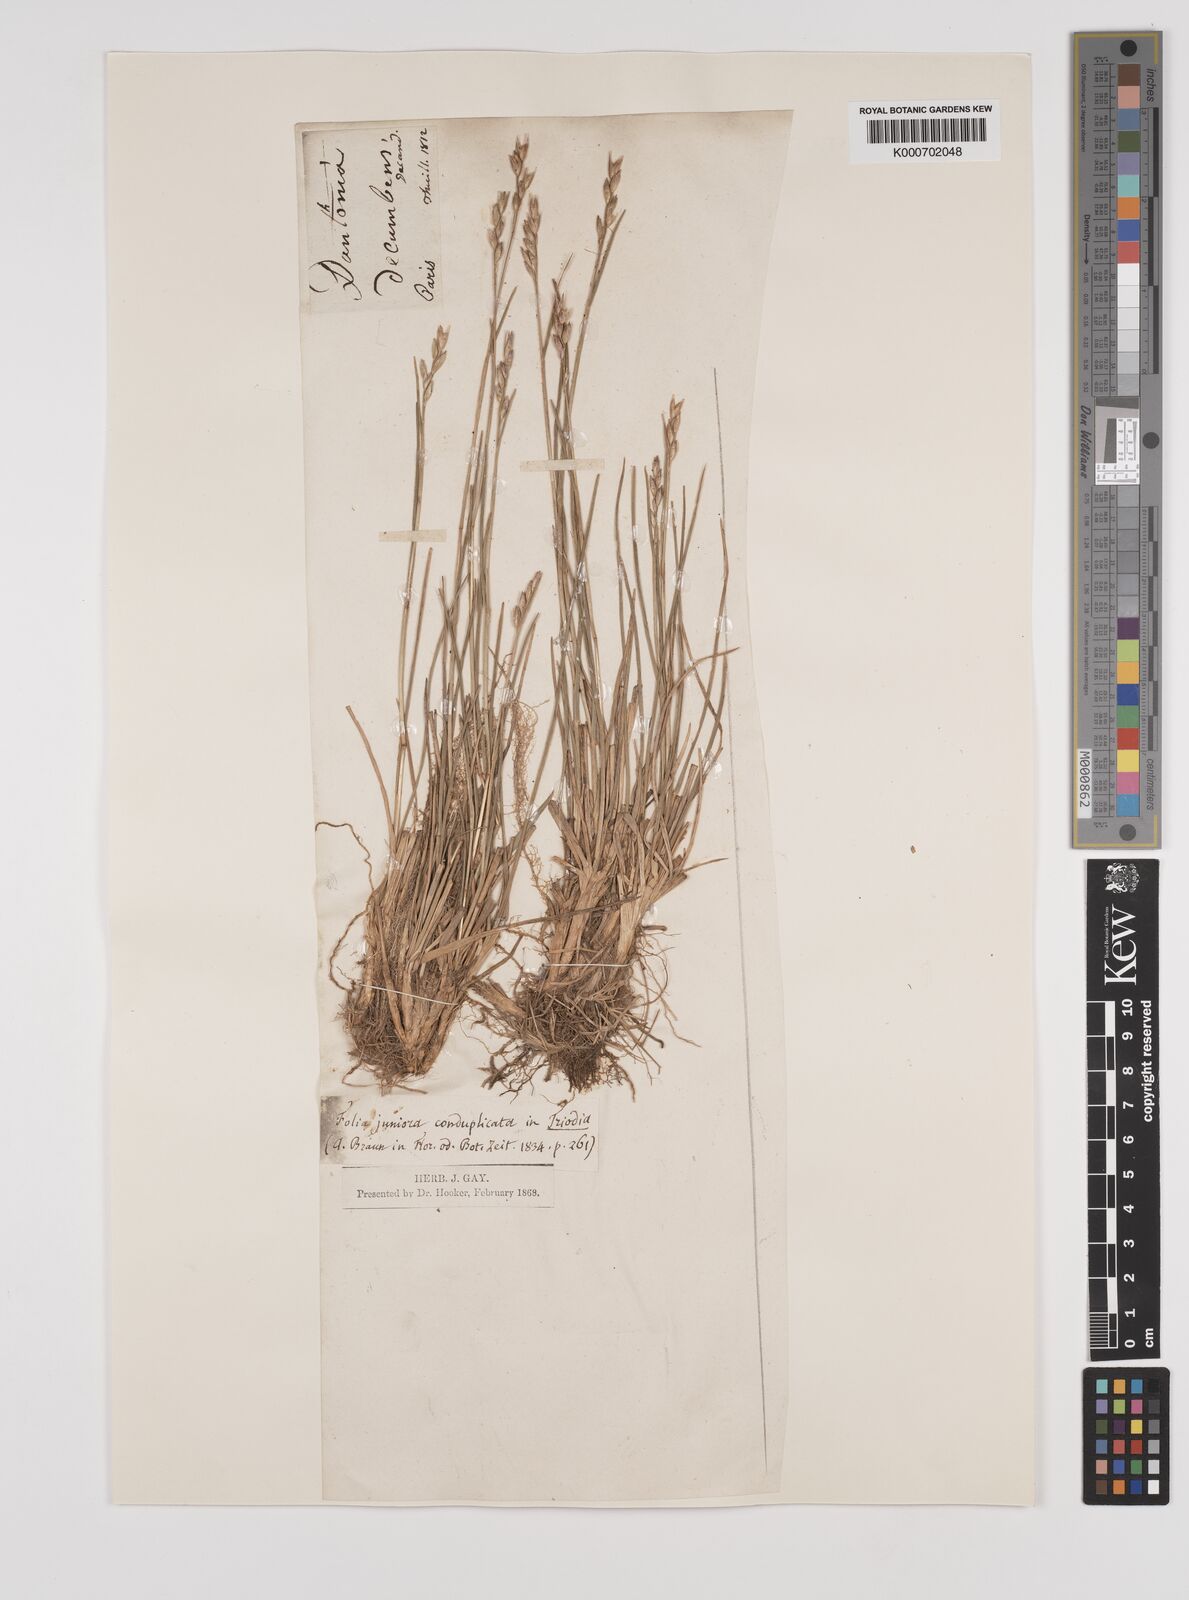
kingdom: Plantae
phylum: Tracheophyta
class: Liliopsida
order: Poales
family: Poaceae
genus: Danthonia
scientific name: Danthonia decumbens
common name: Common heathgrass
